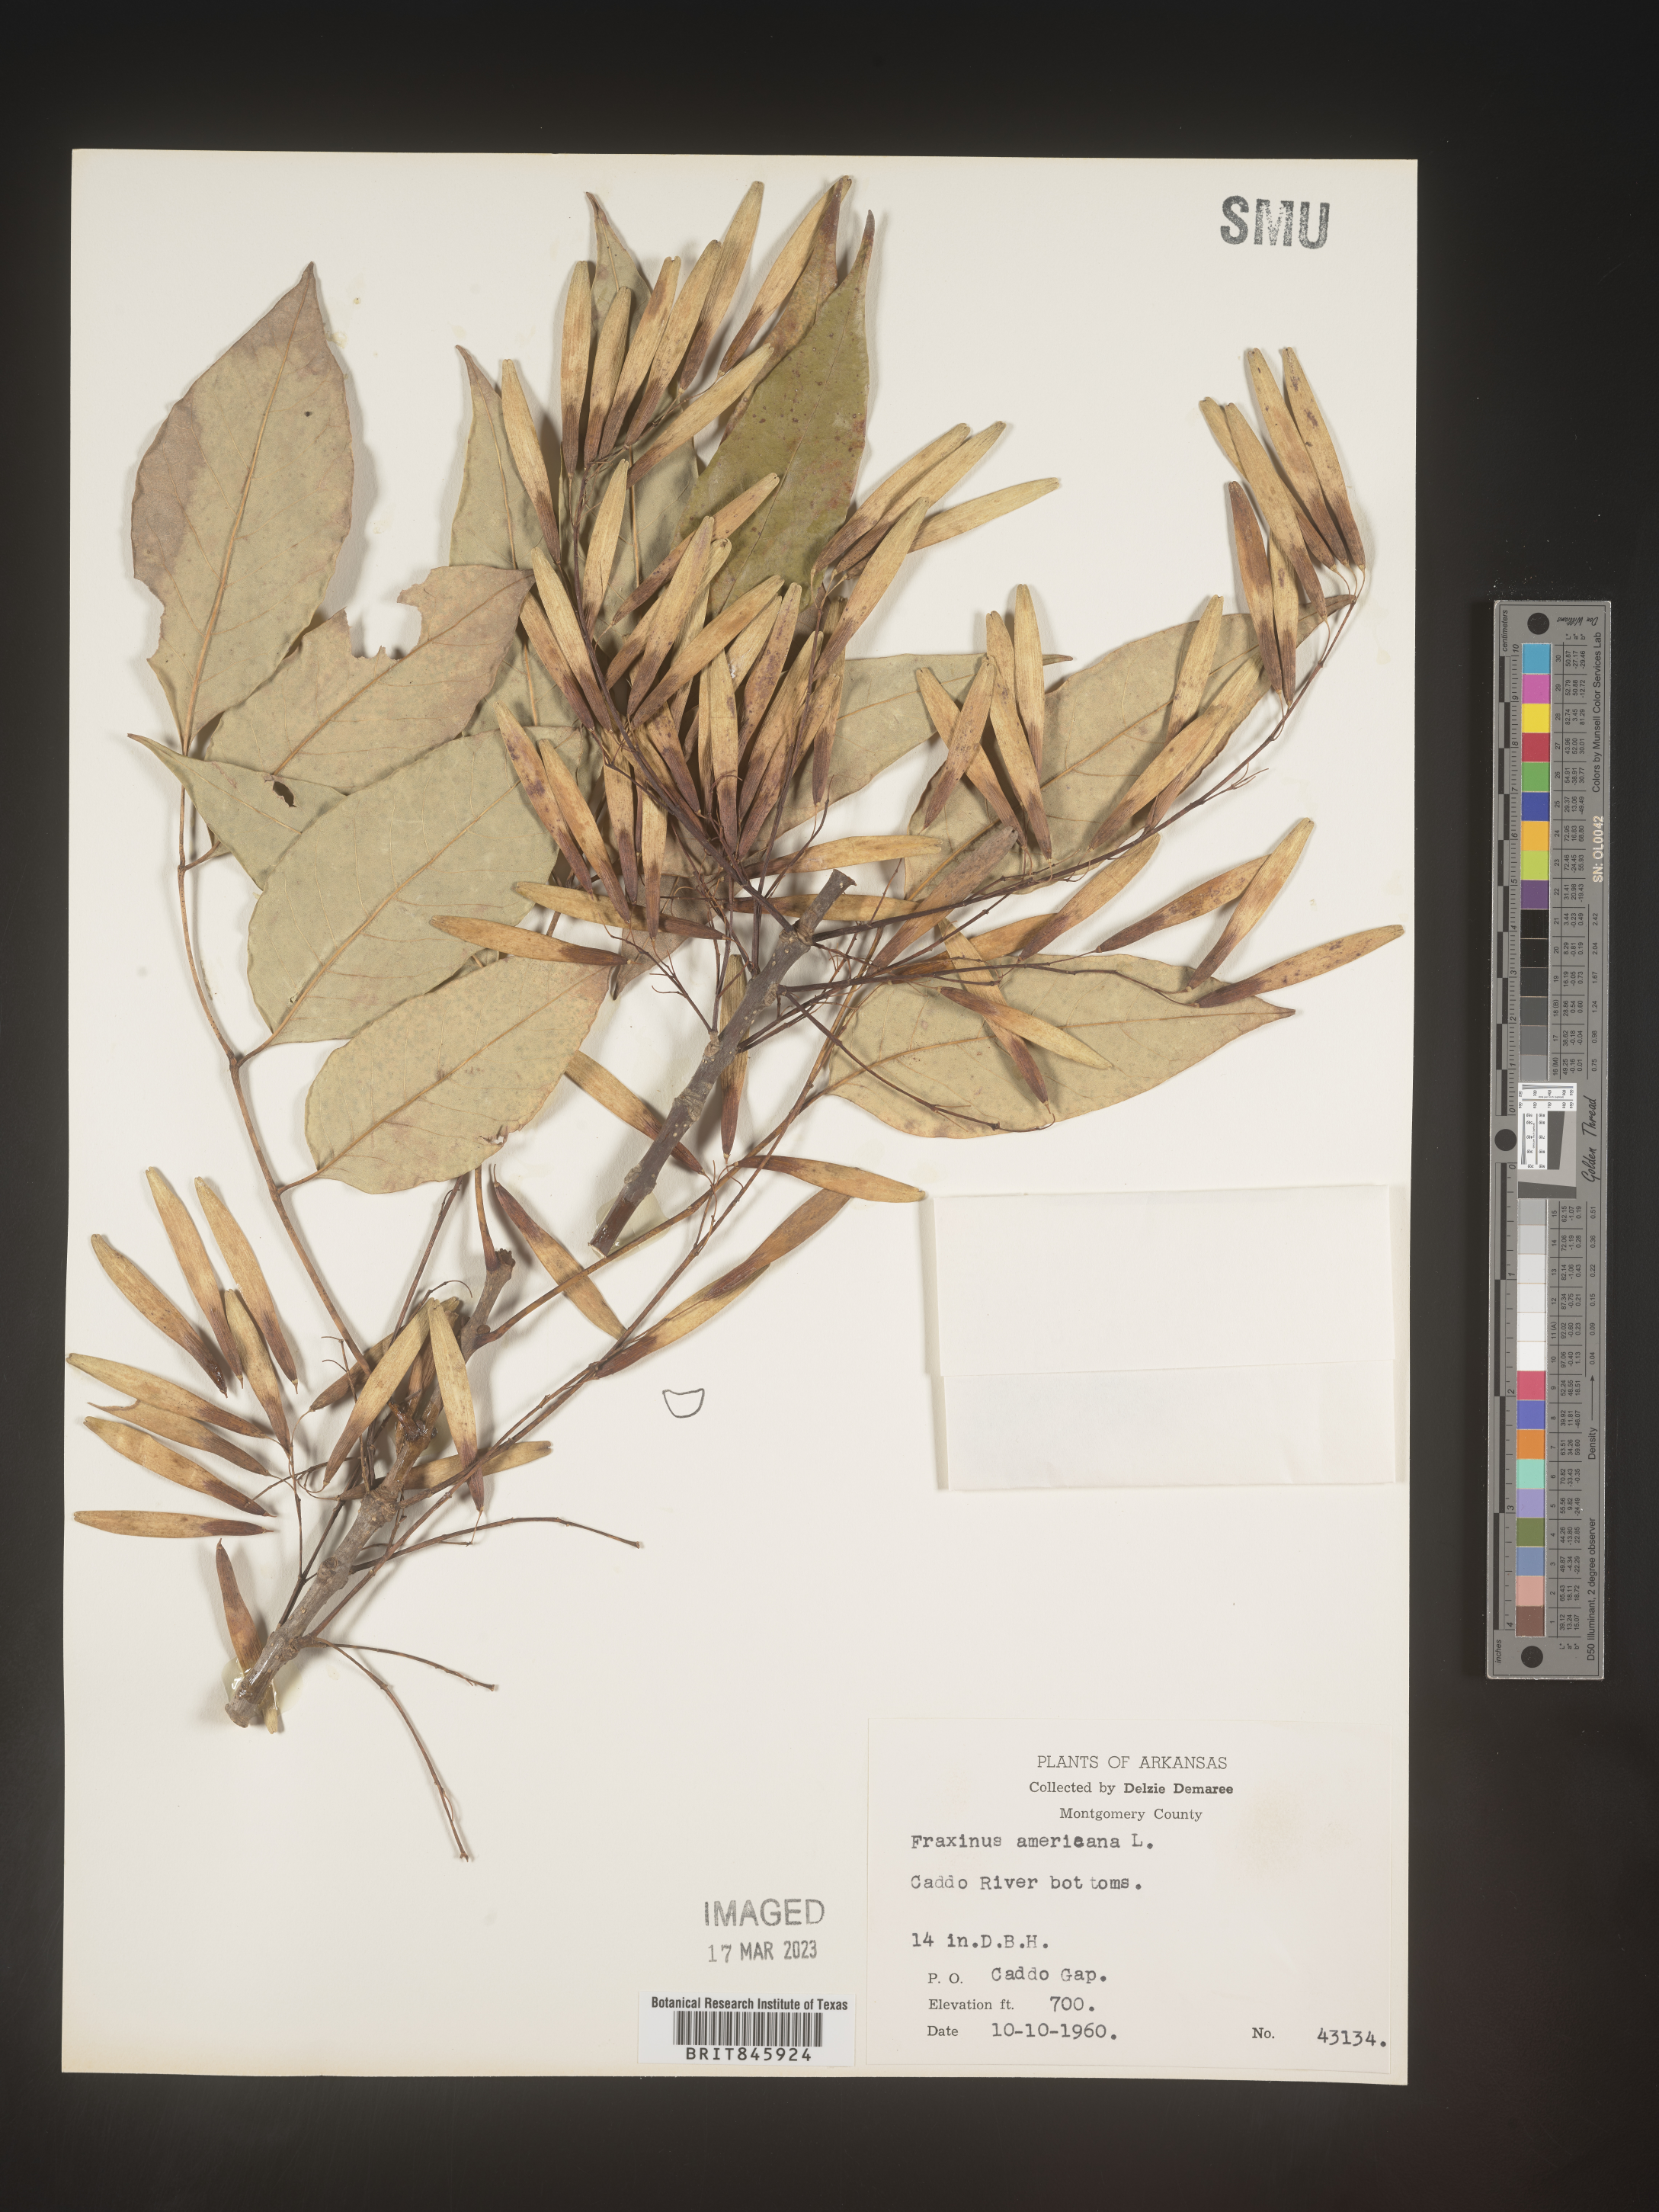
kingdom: Plantae
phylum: Tracheophyta
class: Magnoliopsida
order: Lamiales
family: Oleaceae
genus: Fraxinus
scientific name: Fraxinus americana
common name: White ash
